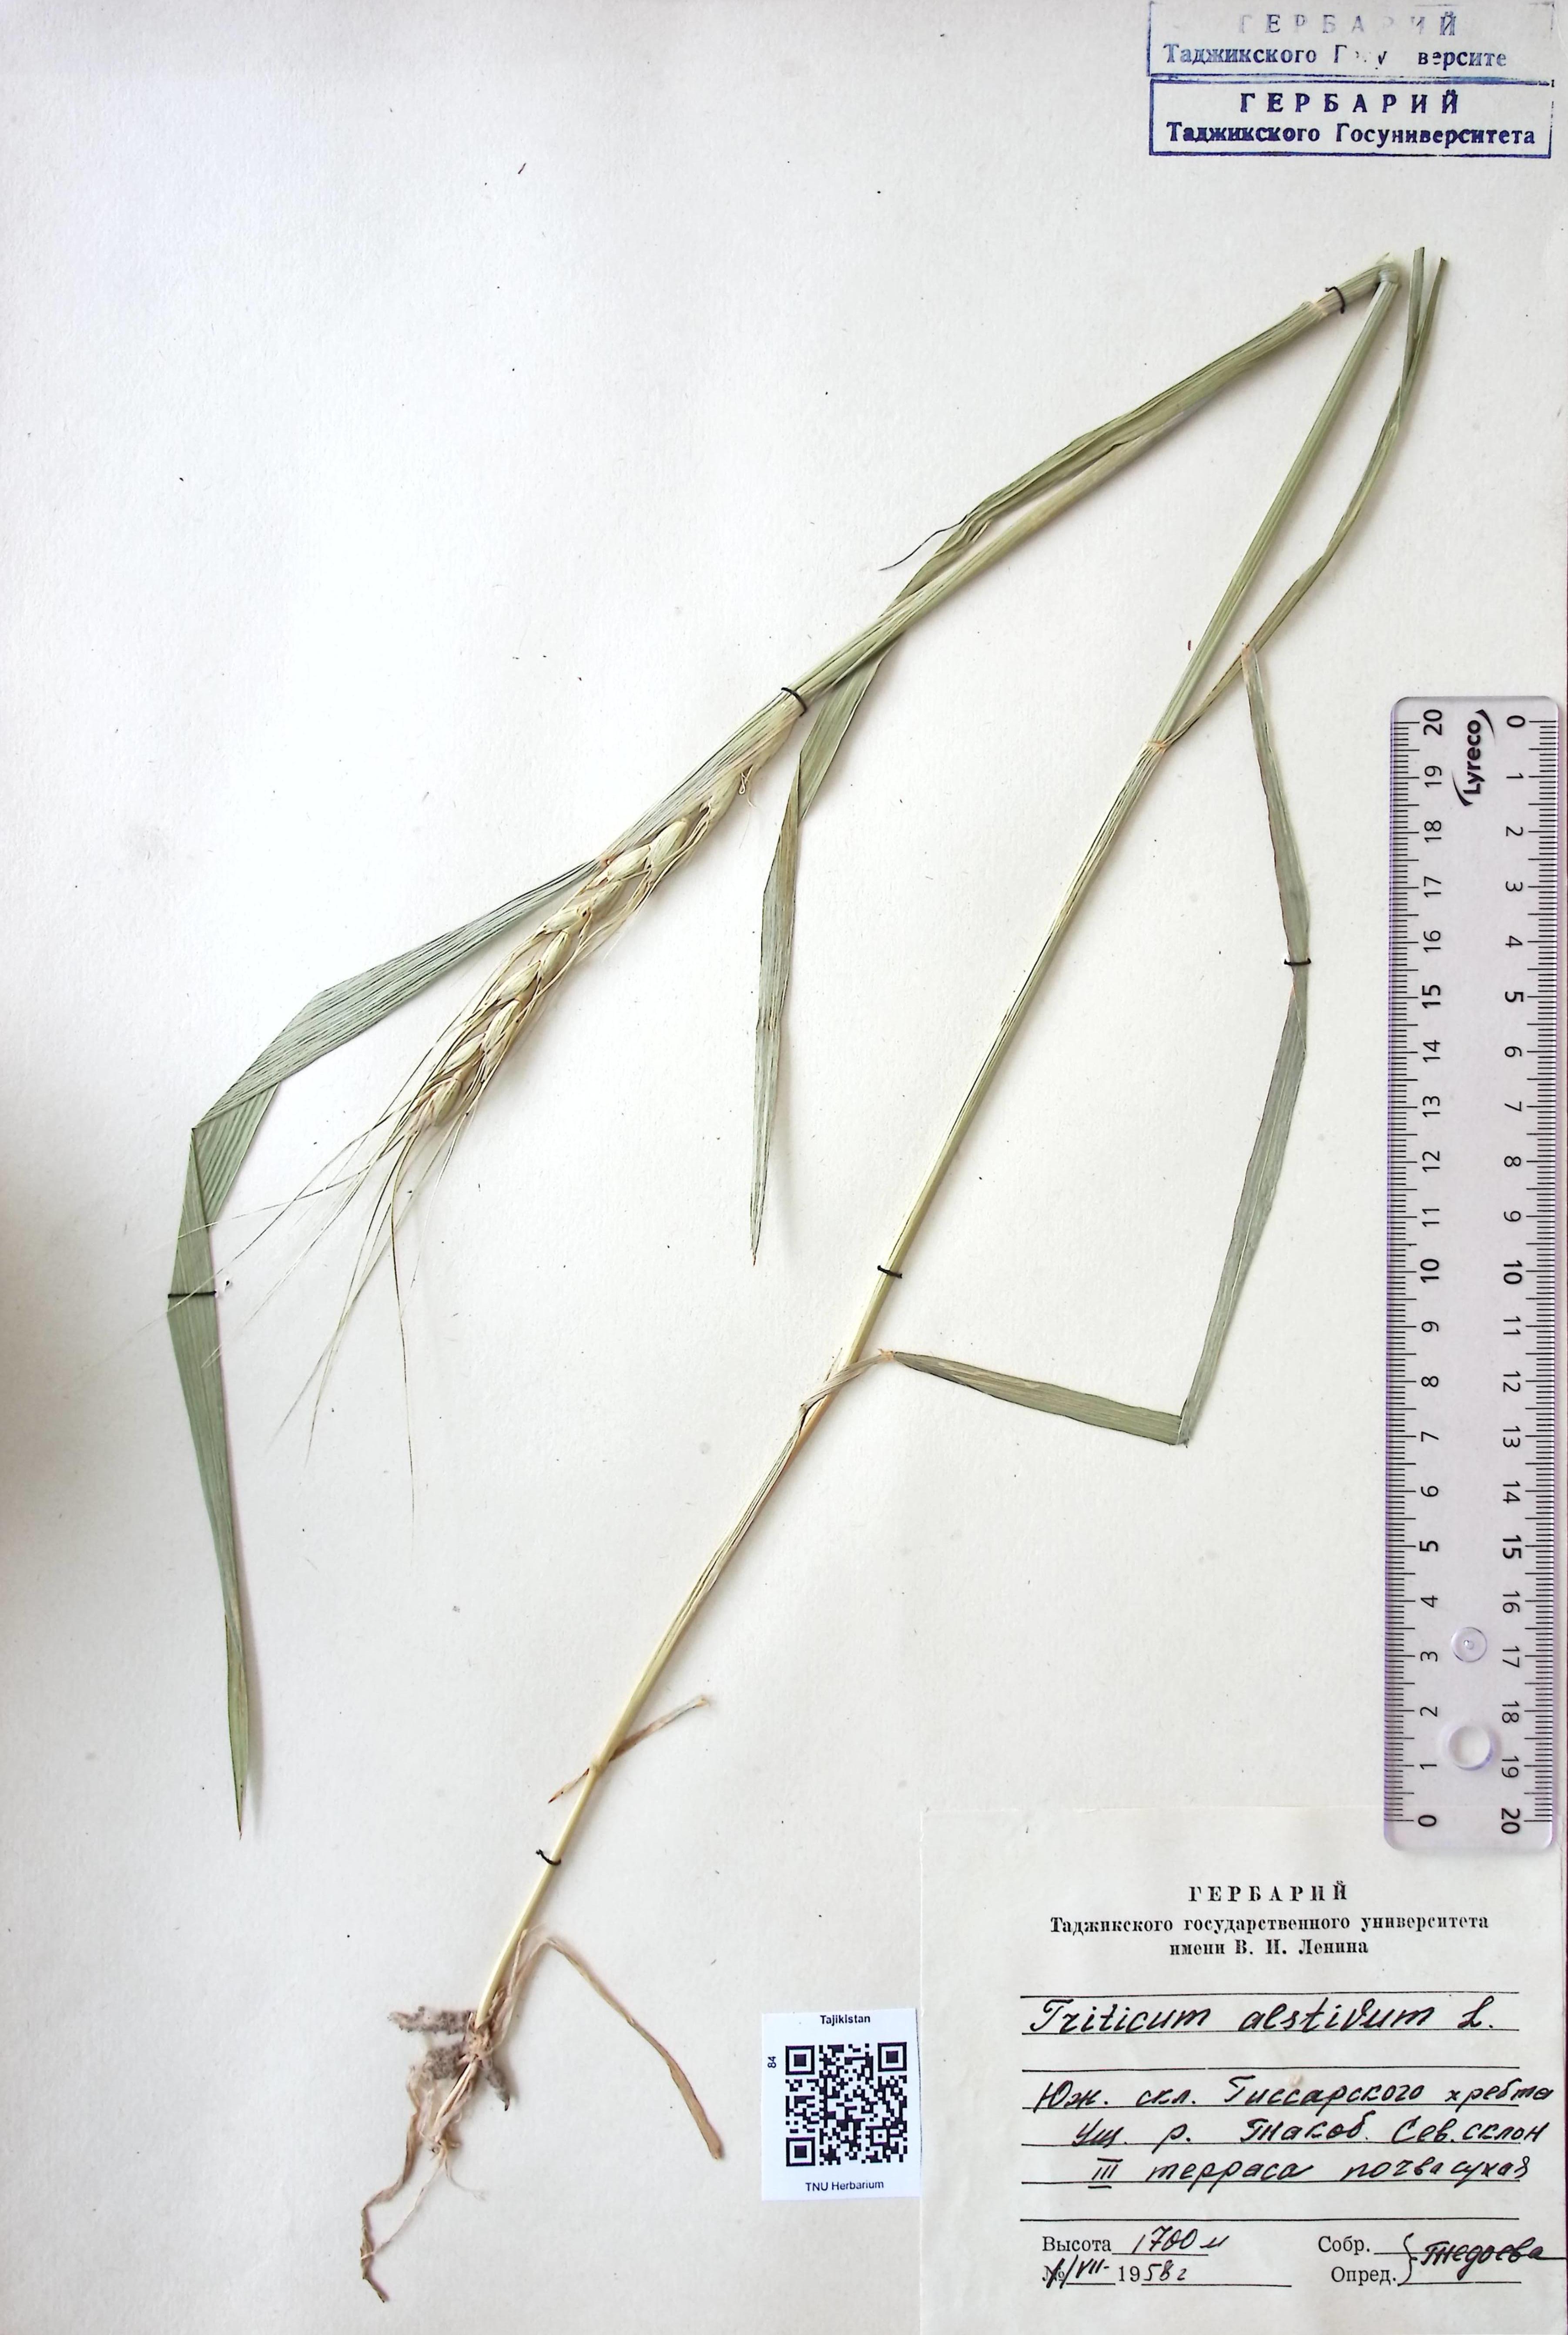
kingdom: Plantae
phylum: Tracheophyta
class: Liliopsida
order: Poales
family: Poaceae
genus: Triticum
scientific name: Triticum aestivum
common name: Common wheat
